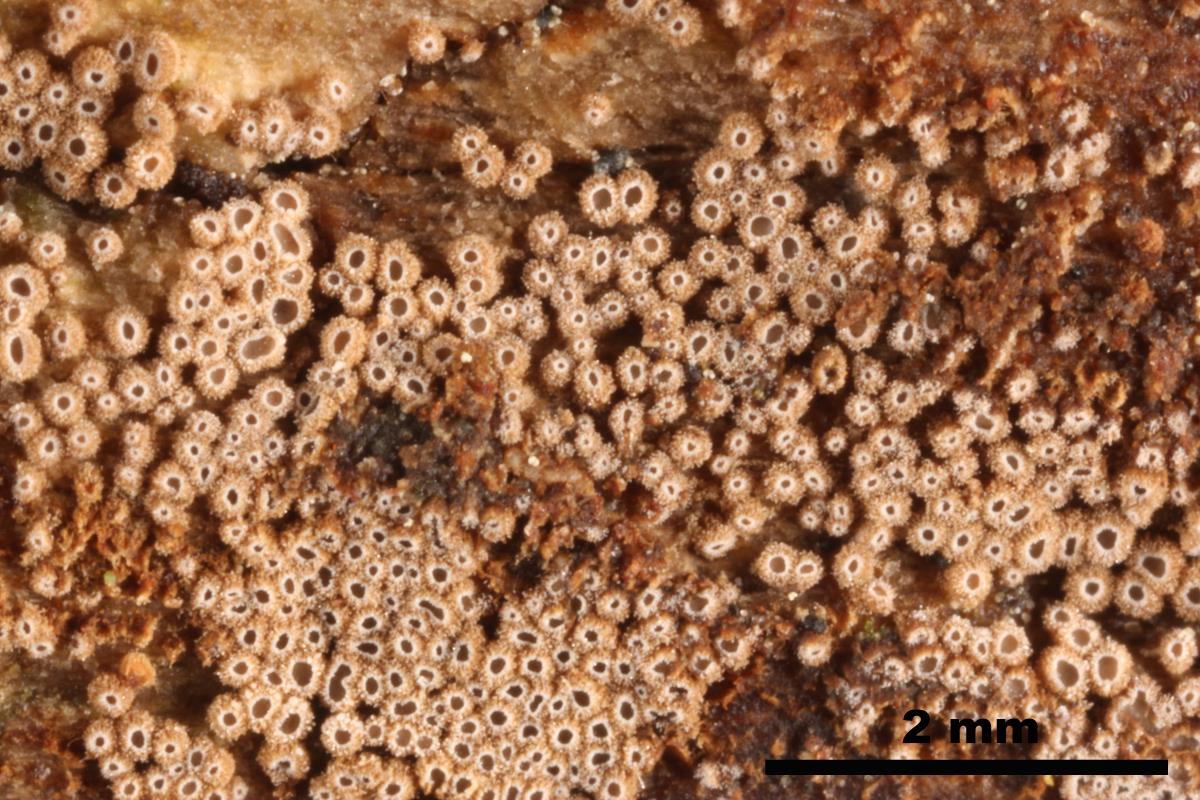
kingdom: Fungi
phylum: Basidiomycota
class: Agaricomycetes
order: Agaricales
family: Niaceae
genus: Merismodes
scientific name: Merismodes anomala
